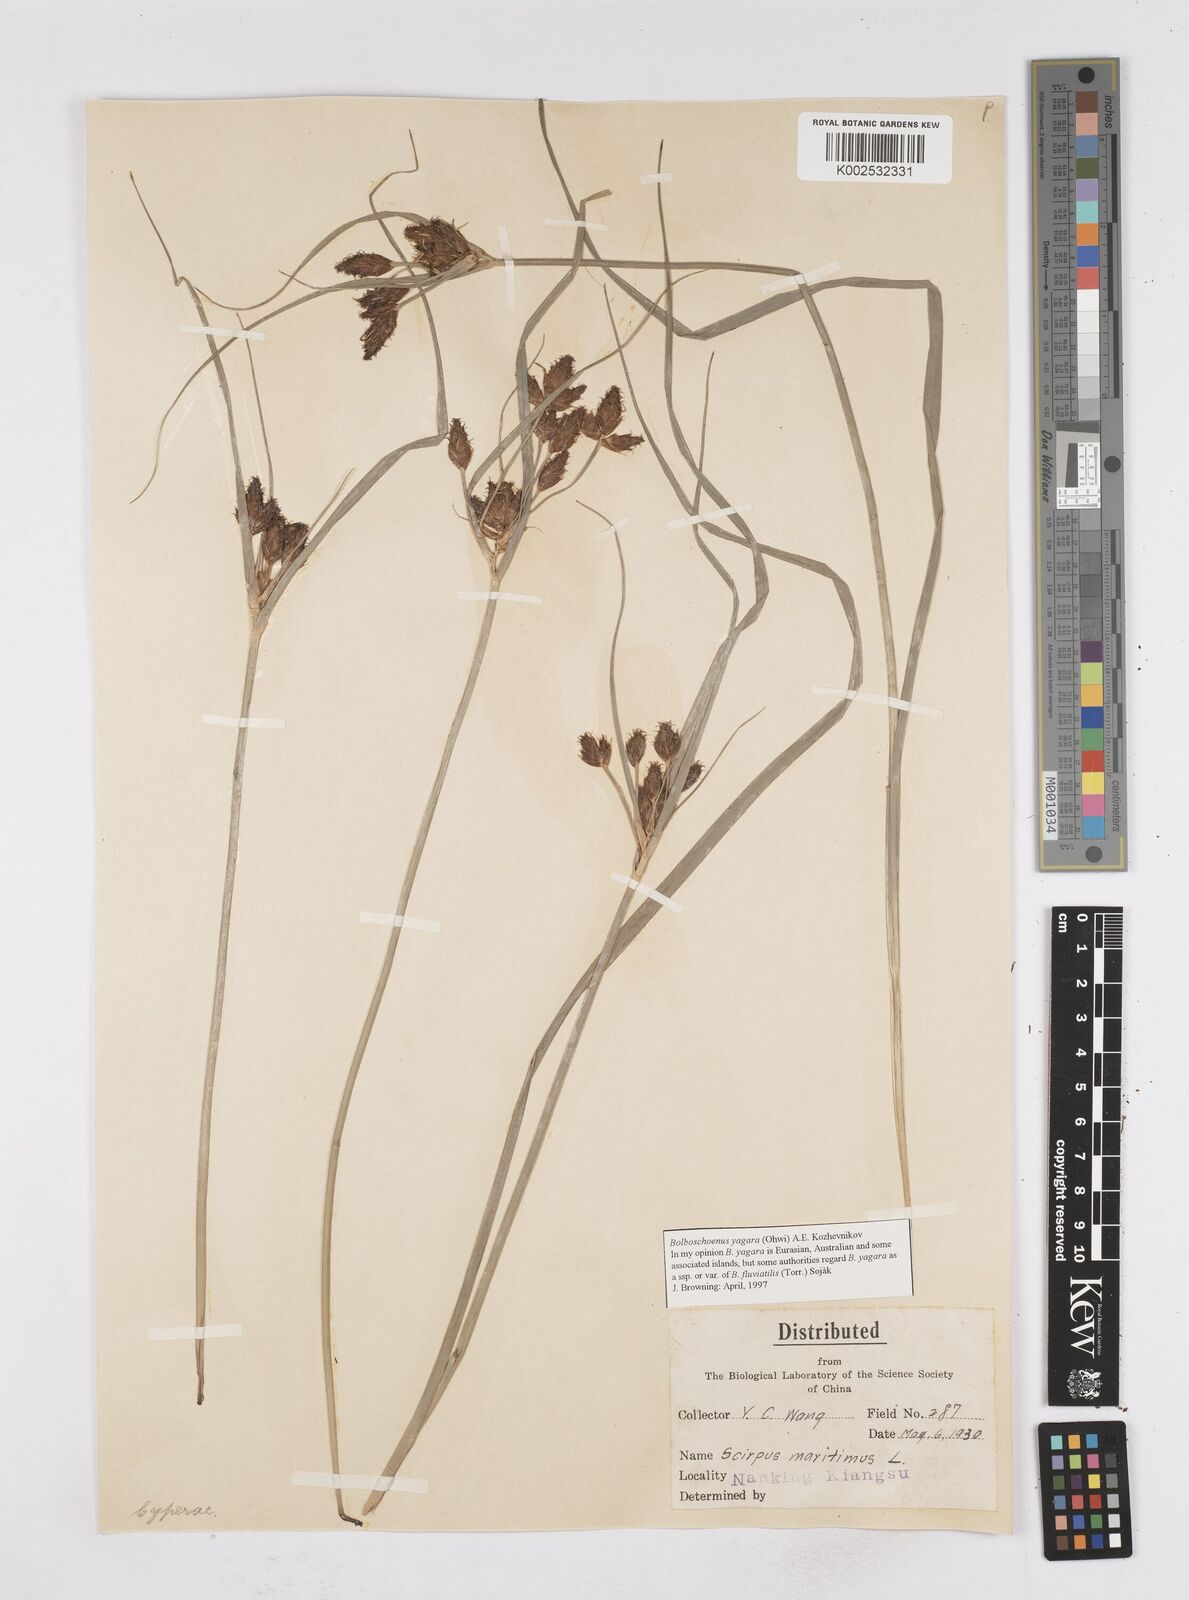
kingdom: Plantae
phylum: Tracheophyta
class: Liliopsida
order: Poales
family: Cyperaceae
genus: Bolboschoenus
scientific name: Bolboschoenus maritimus
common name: Sea club-rush
